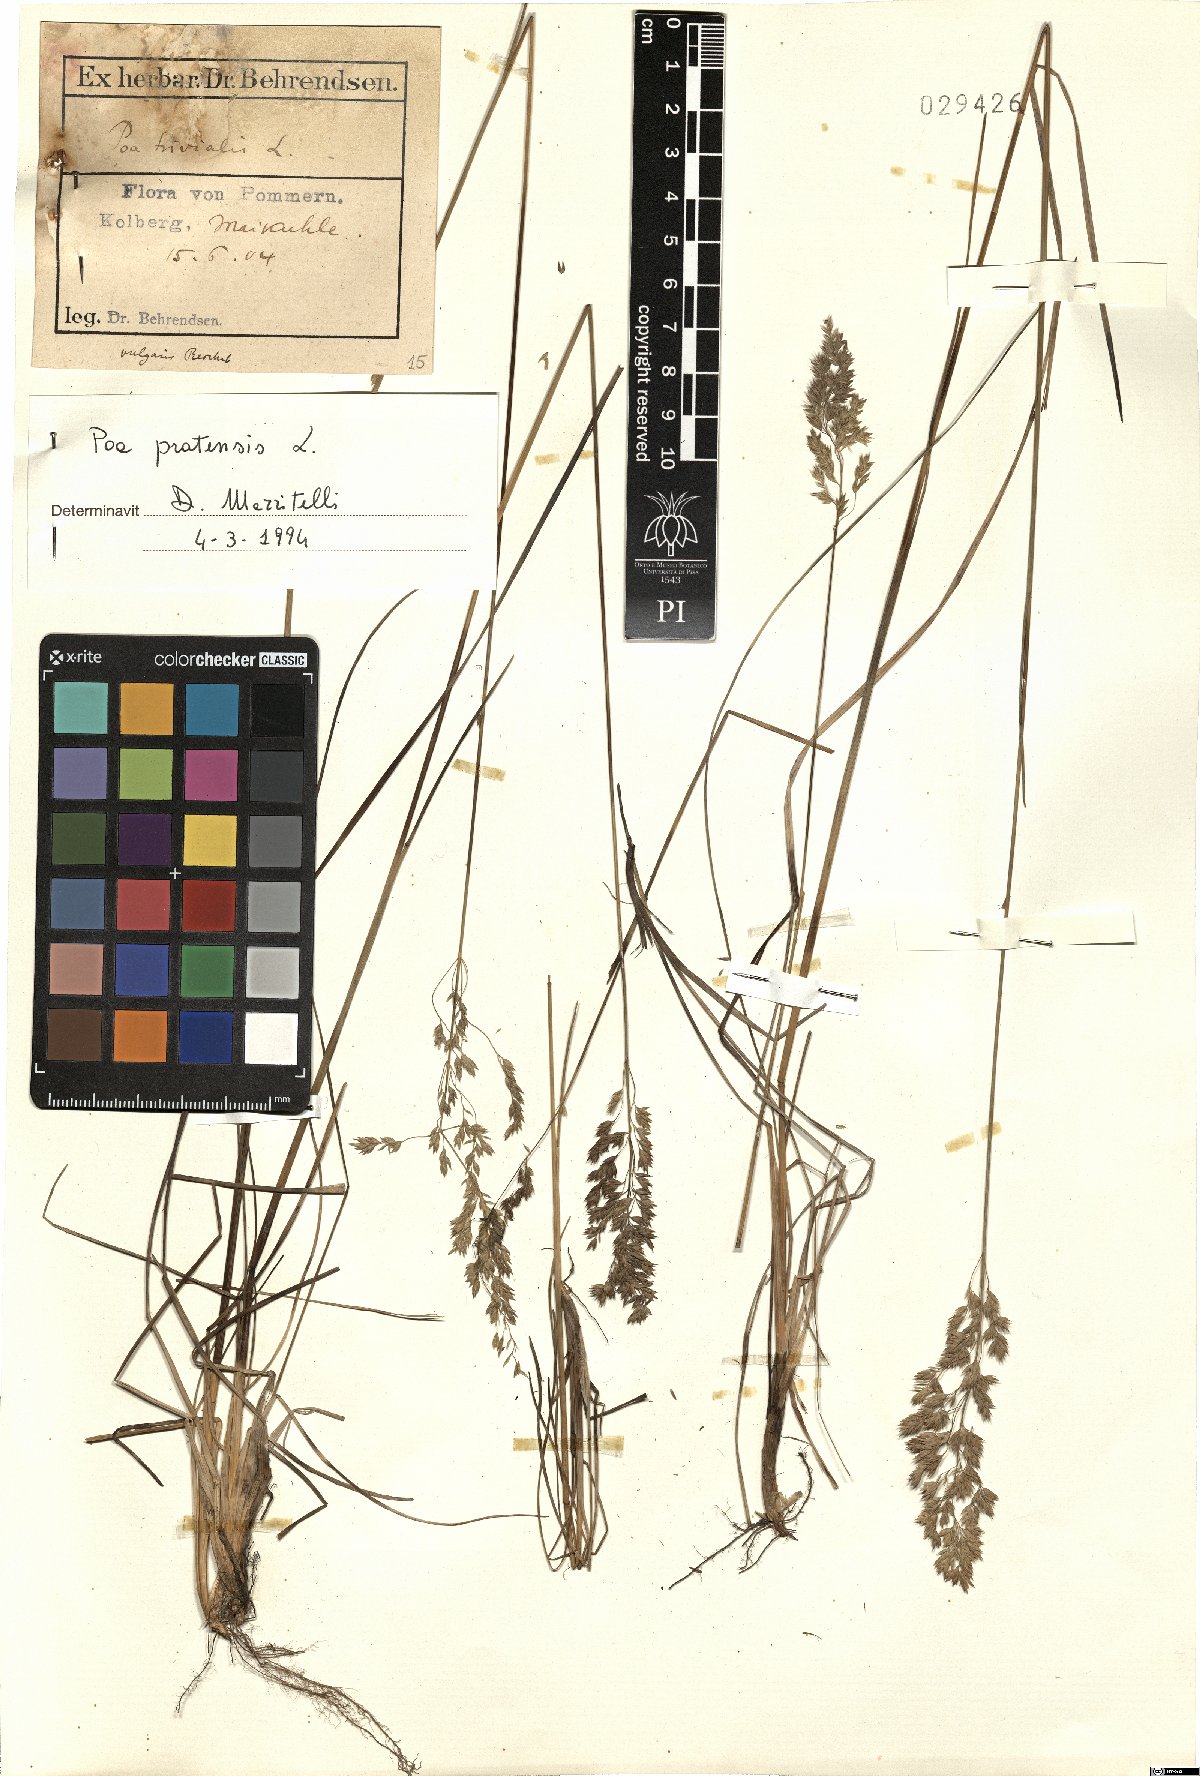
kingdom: Plantae
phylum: Tracheophyta
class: Liliopsida
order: Poales
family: Poaceae
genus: Poa
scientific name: Poa pratensis
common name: Kentucky bluegrass
